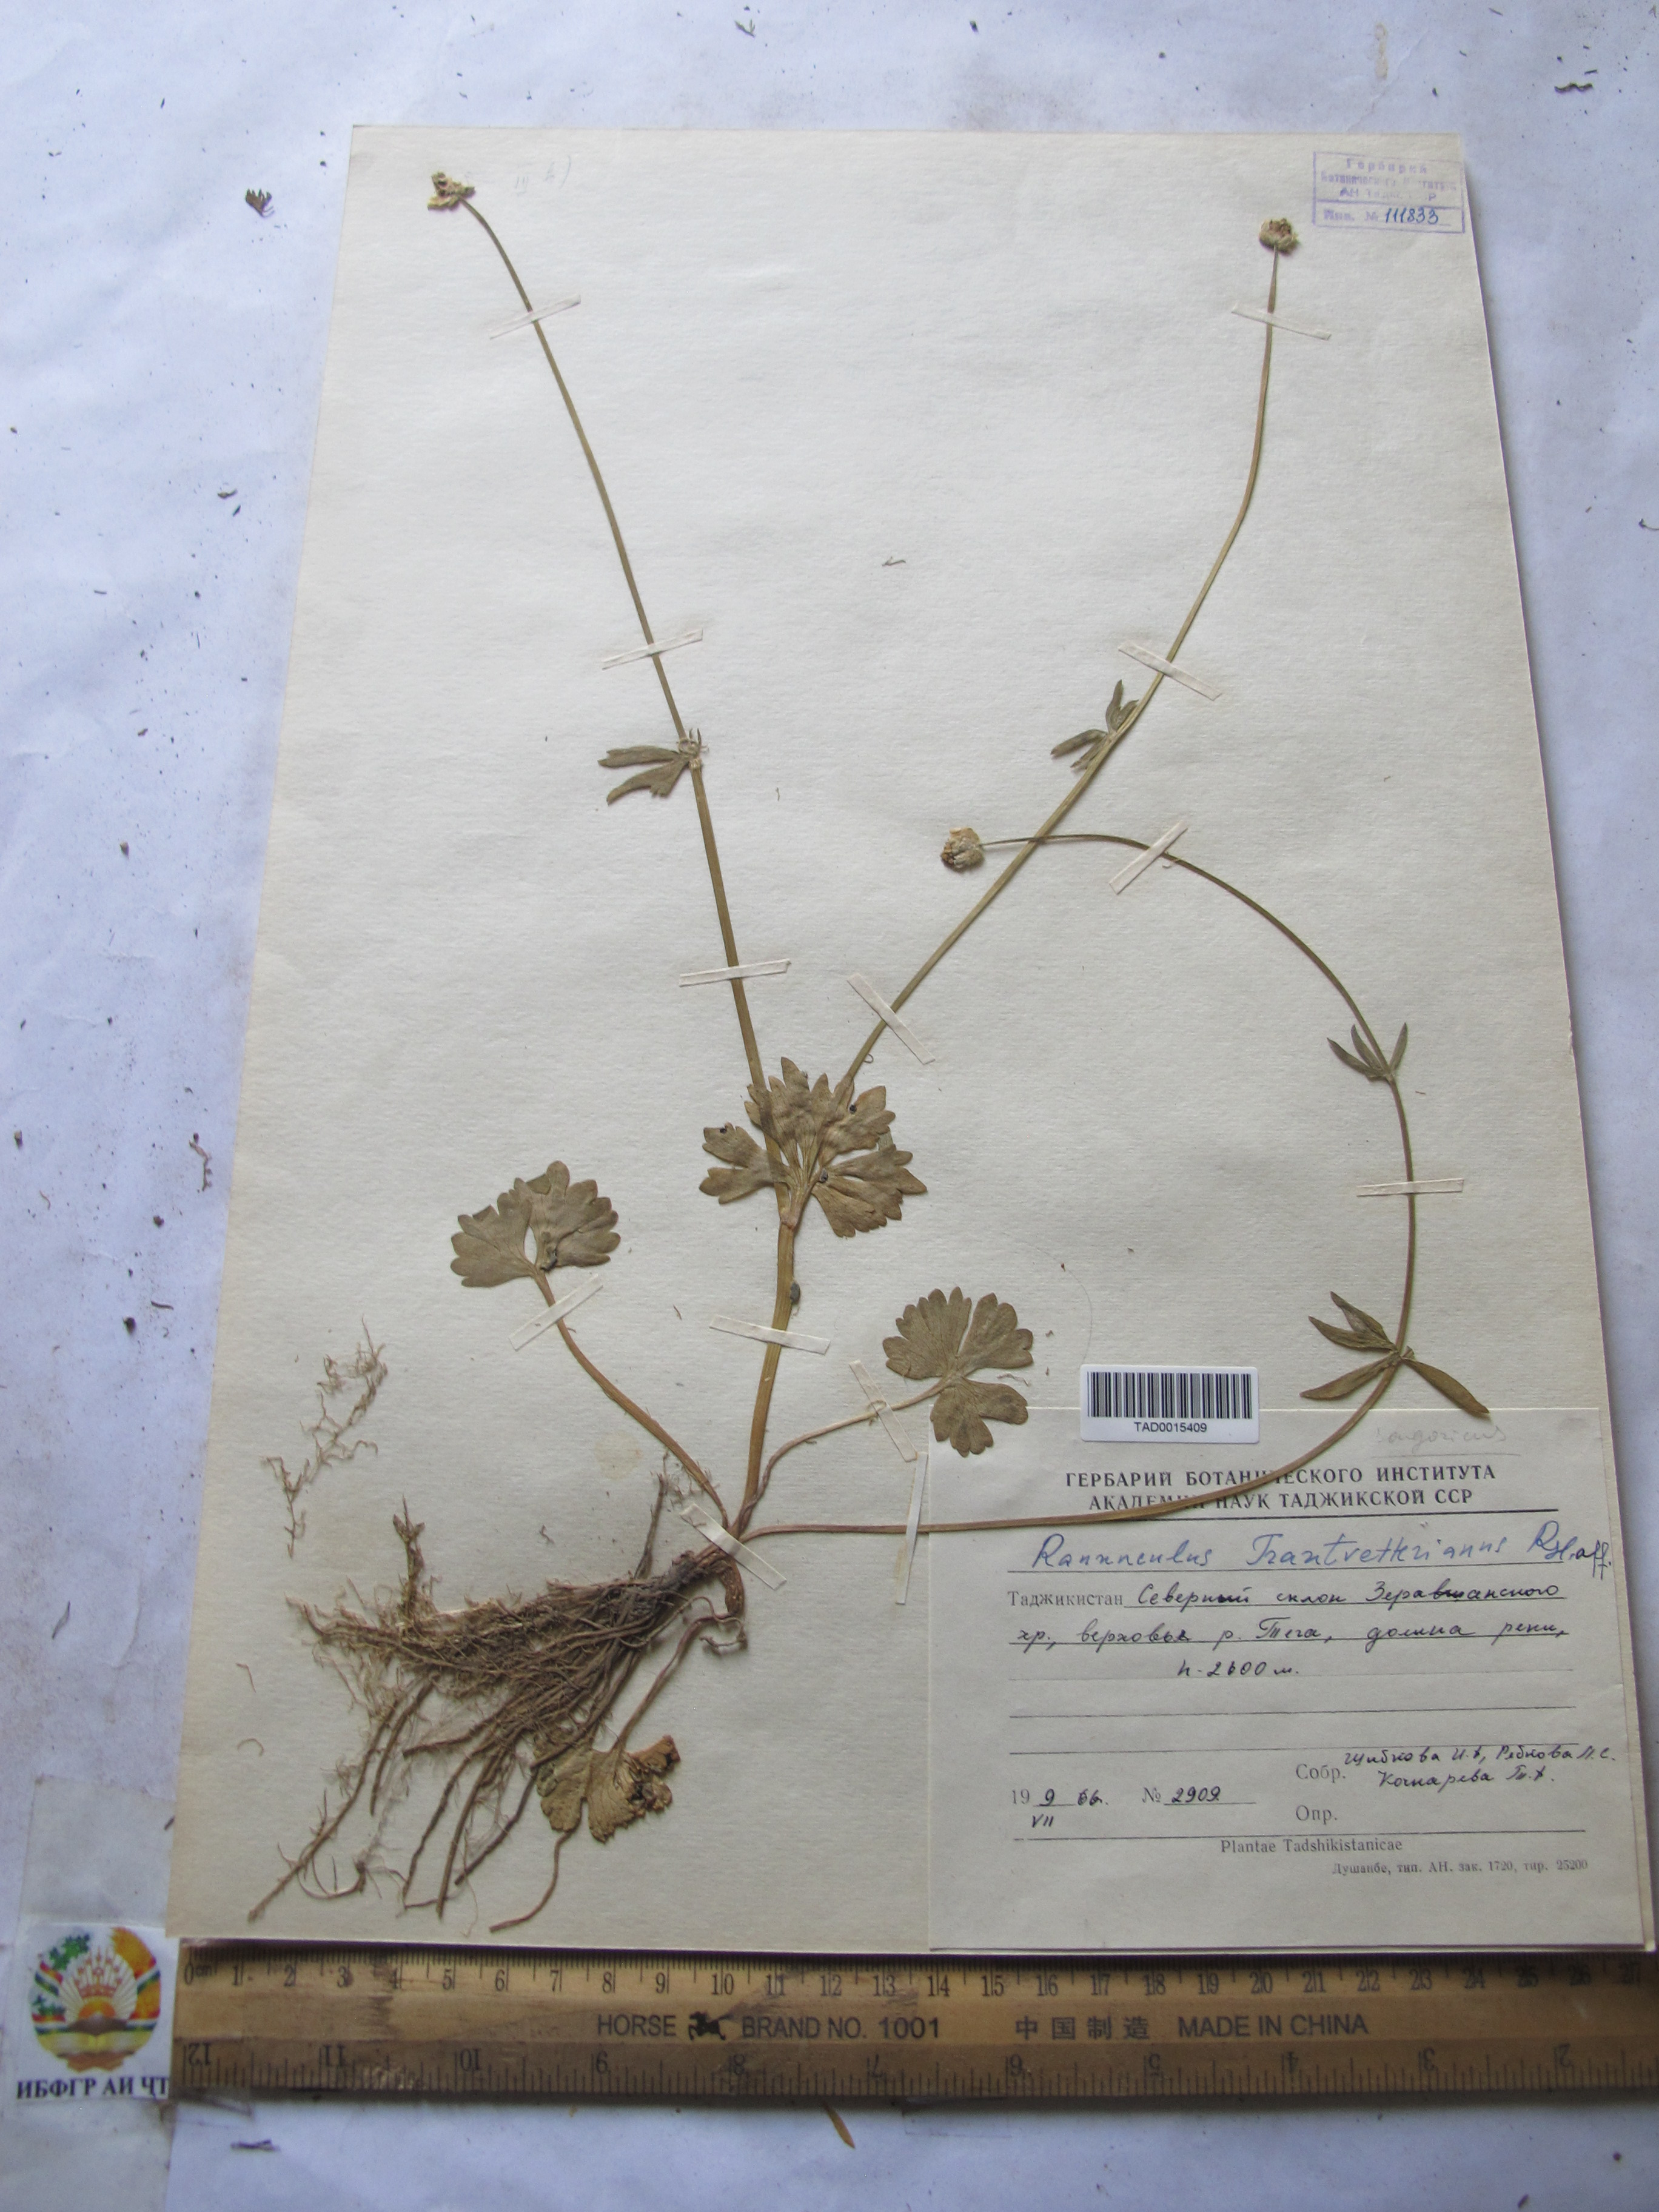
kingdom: Plantae
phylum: Tracheophyta
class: Magnoliopsida
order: Ranunculales
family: Ranunculaceae
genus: Ranunculus
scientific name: Ranunculus songaricus
